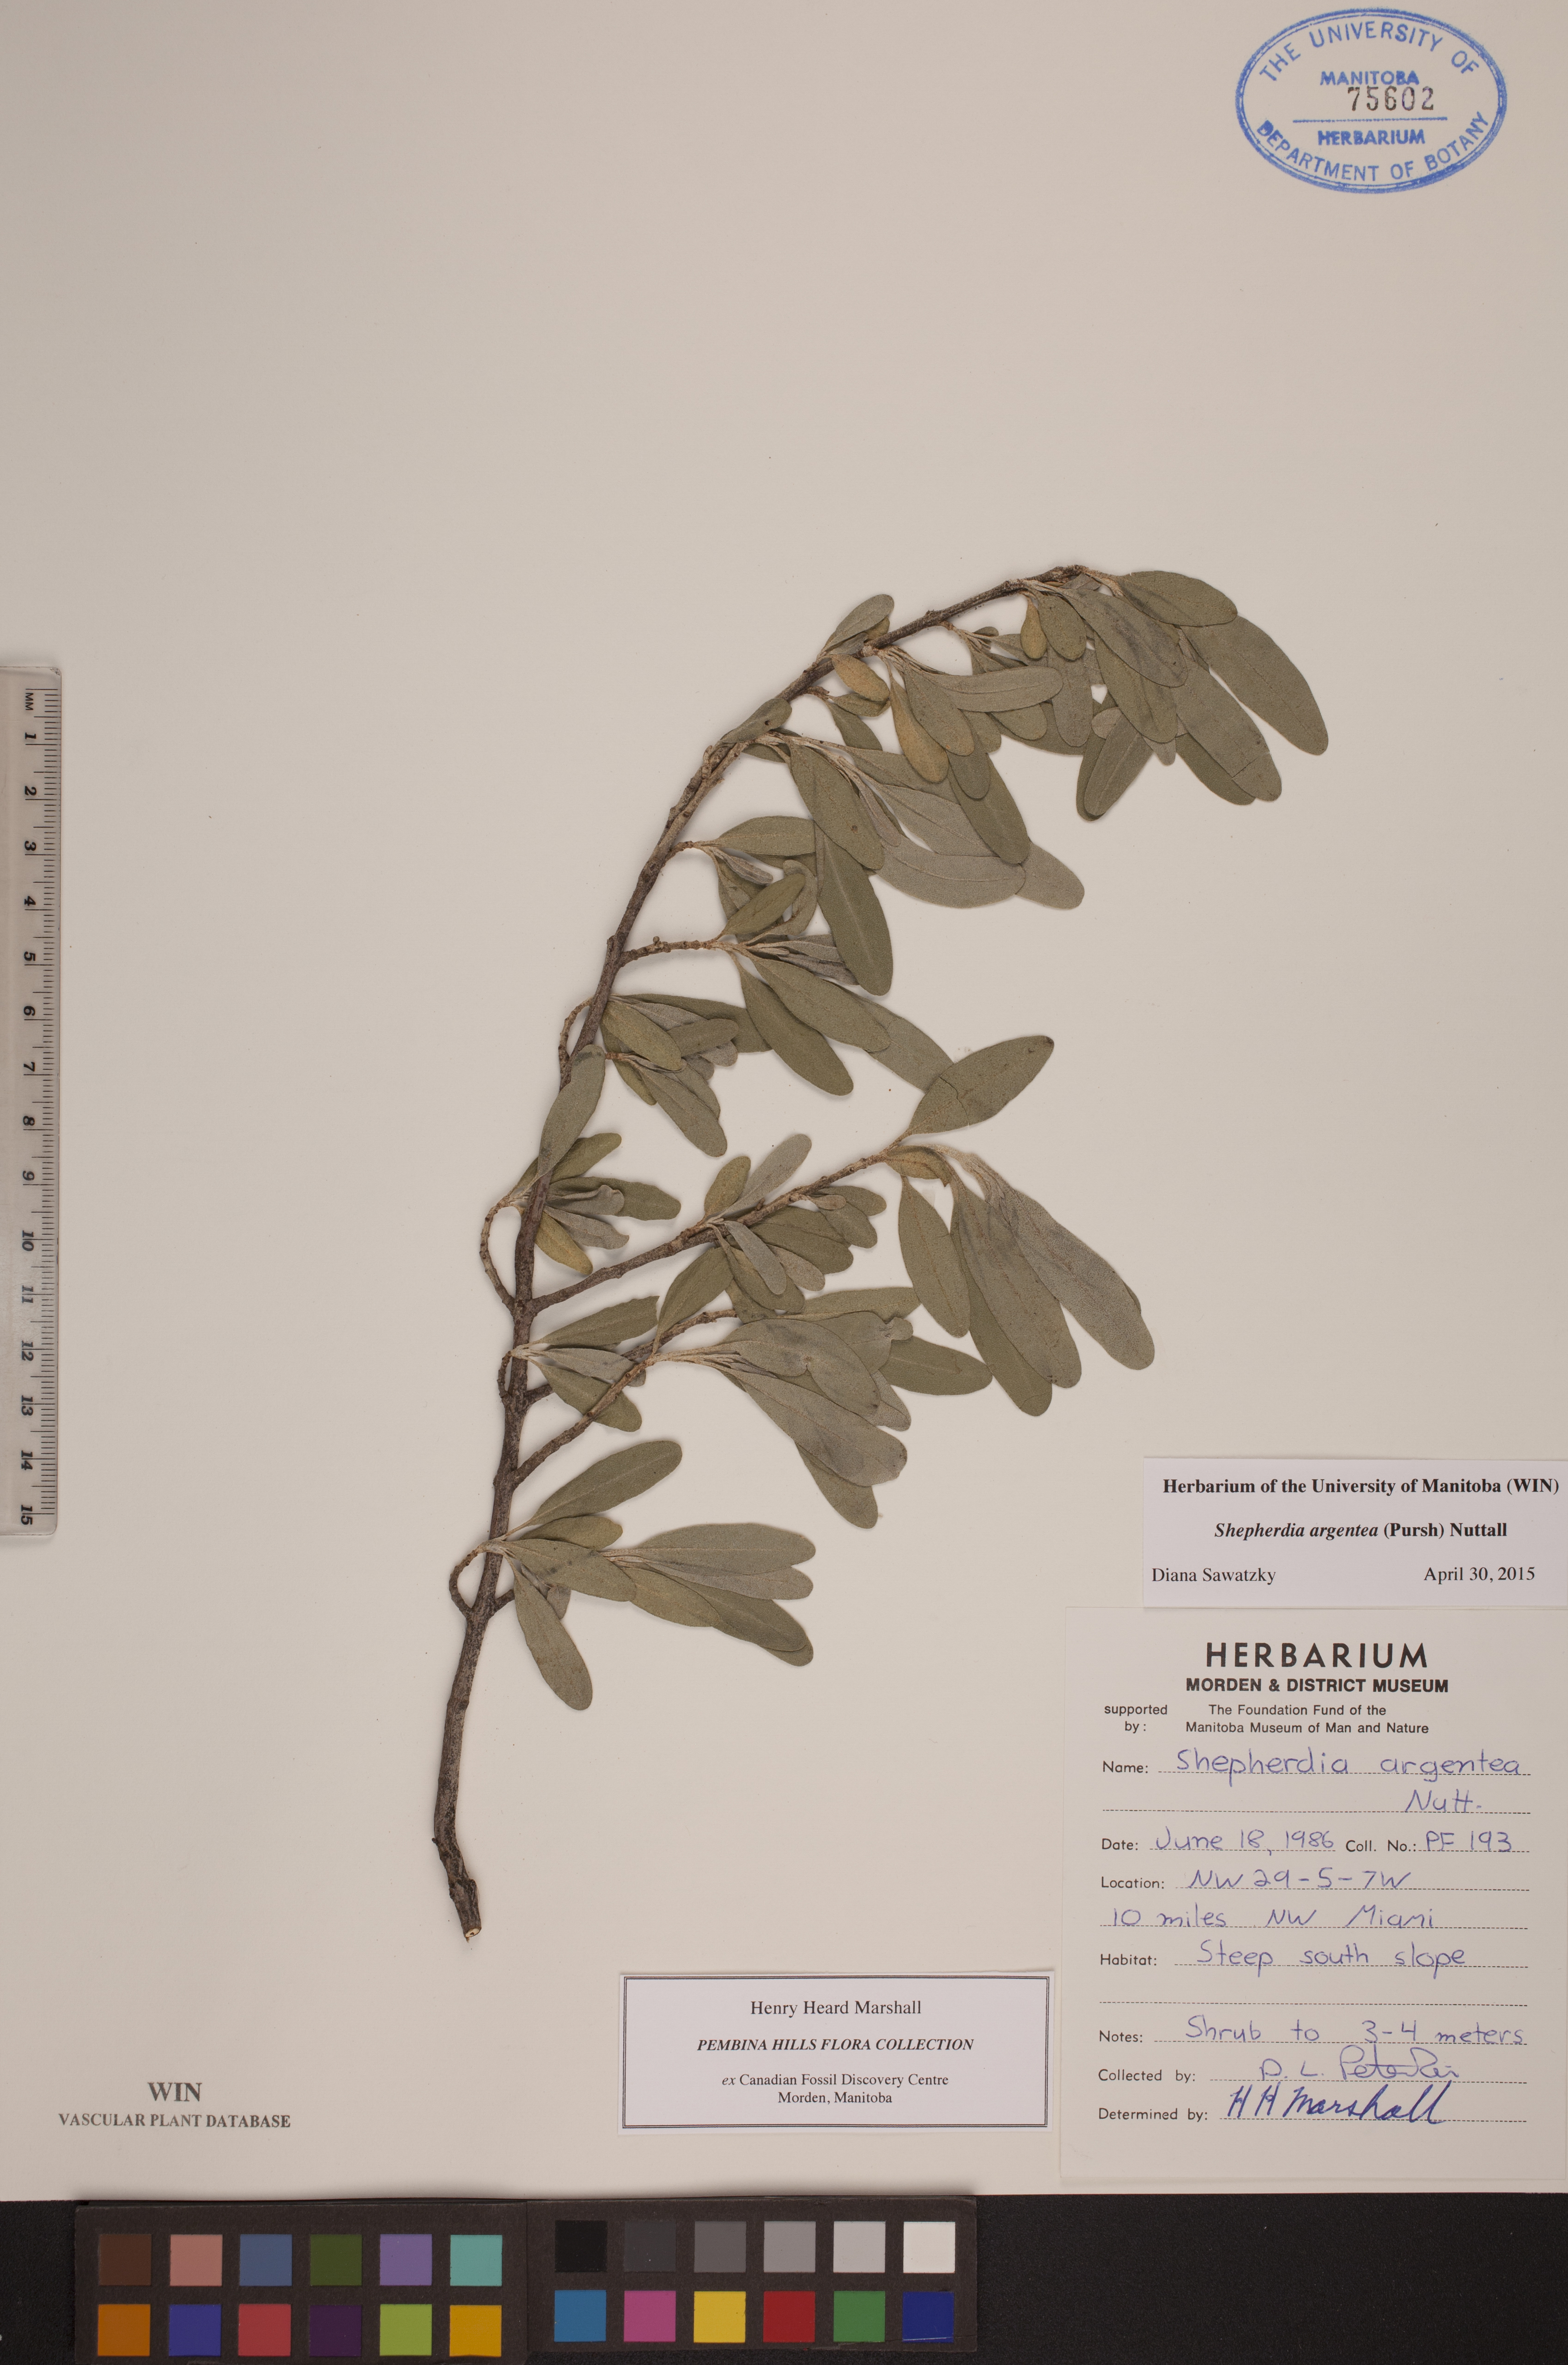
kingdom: Plantae
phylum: Tracheophyta
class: Magnoliopsida
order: Rosales
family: Elaeagnaceae
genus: Shepherdia
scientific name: Shepherdia argentea
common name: Silver buffaloberry
